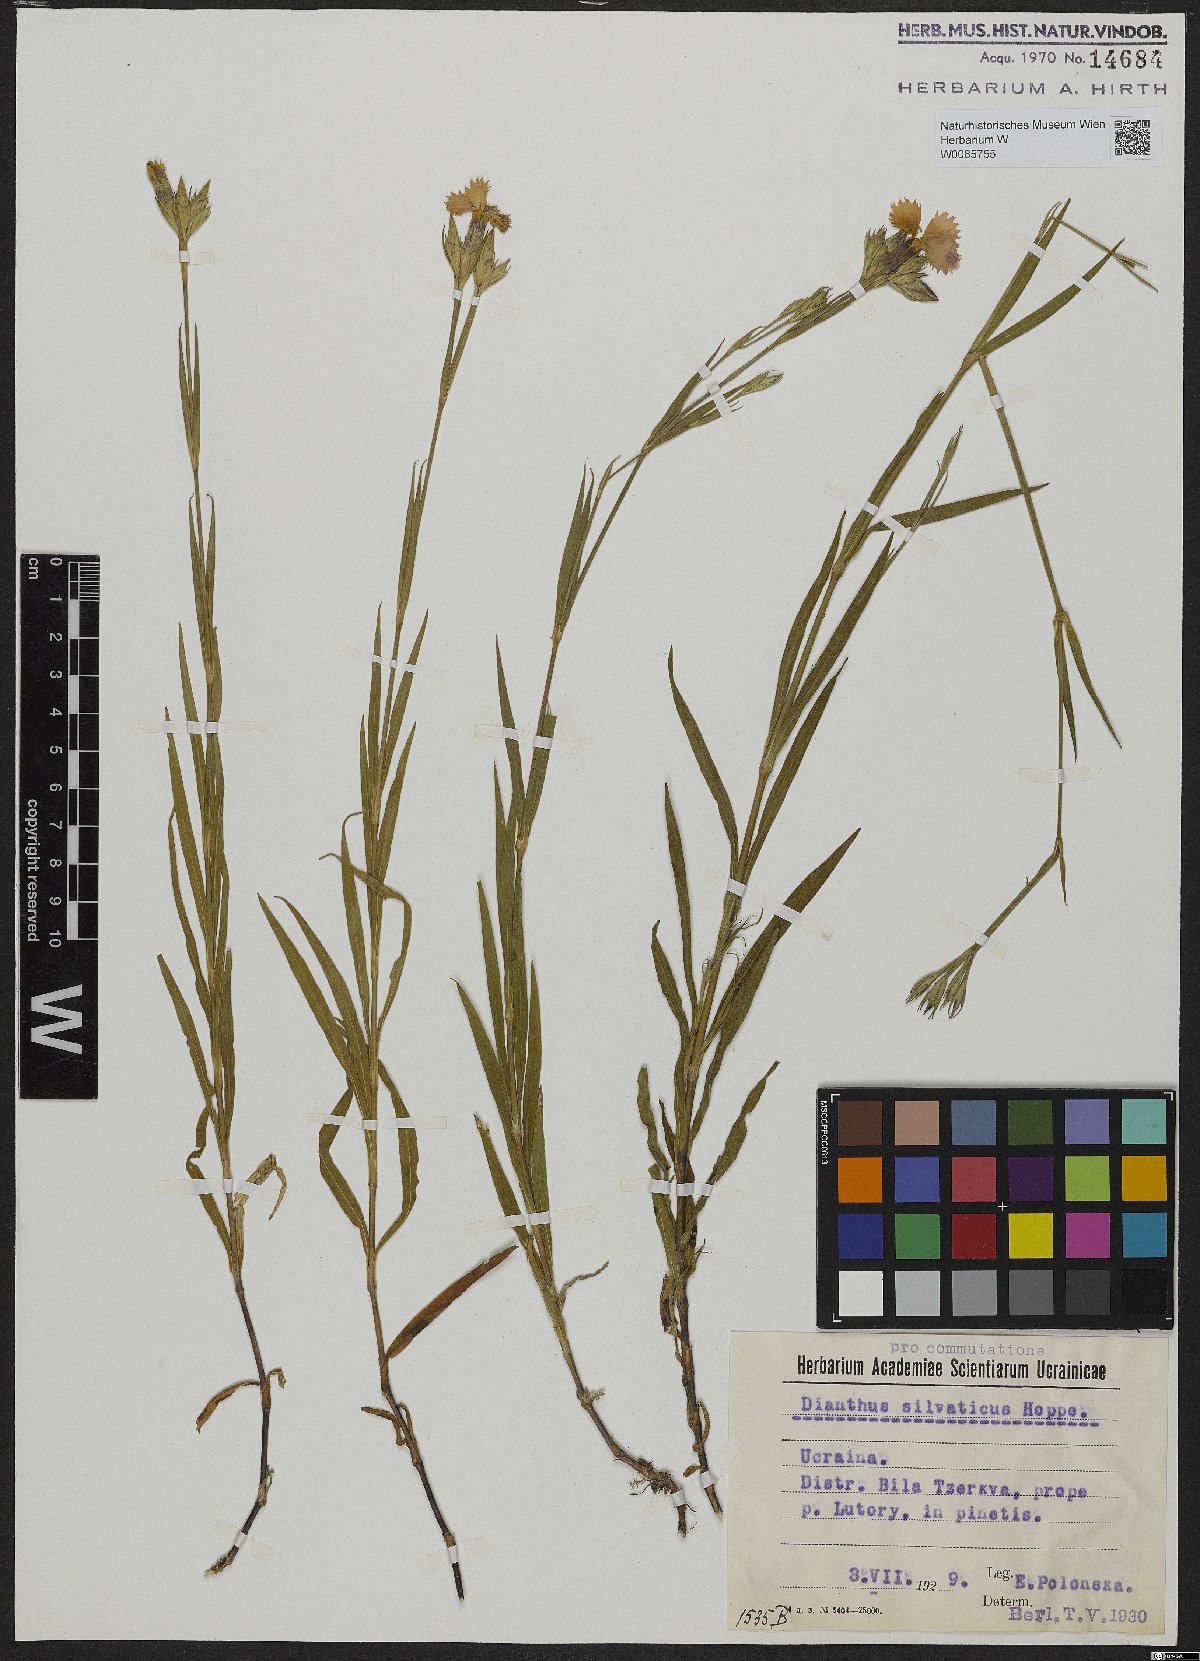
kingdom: Plantae
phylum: Tracheophyta
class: Magnoliopsida
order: Caryophyllales
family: Caryophyllaceae
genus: Dianthus
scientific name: Dianthus seguieri
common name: Ragged pink
